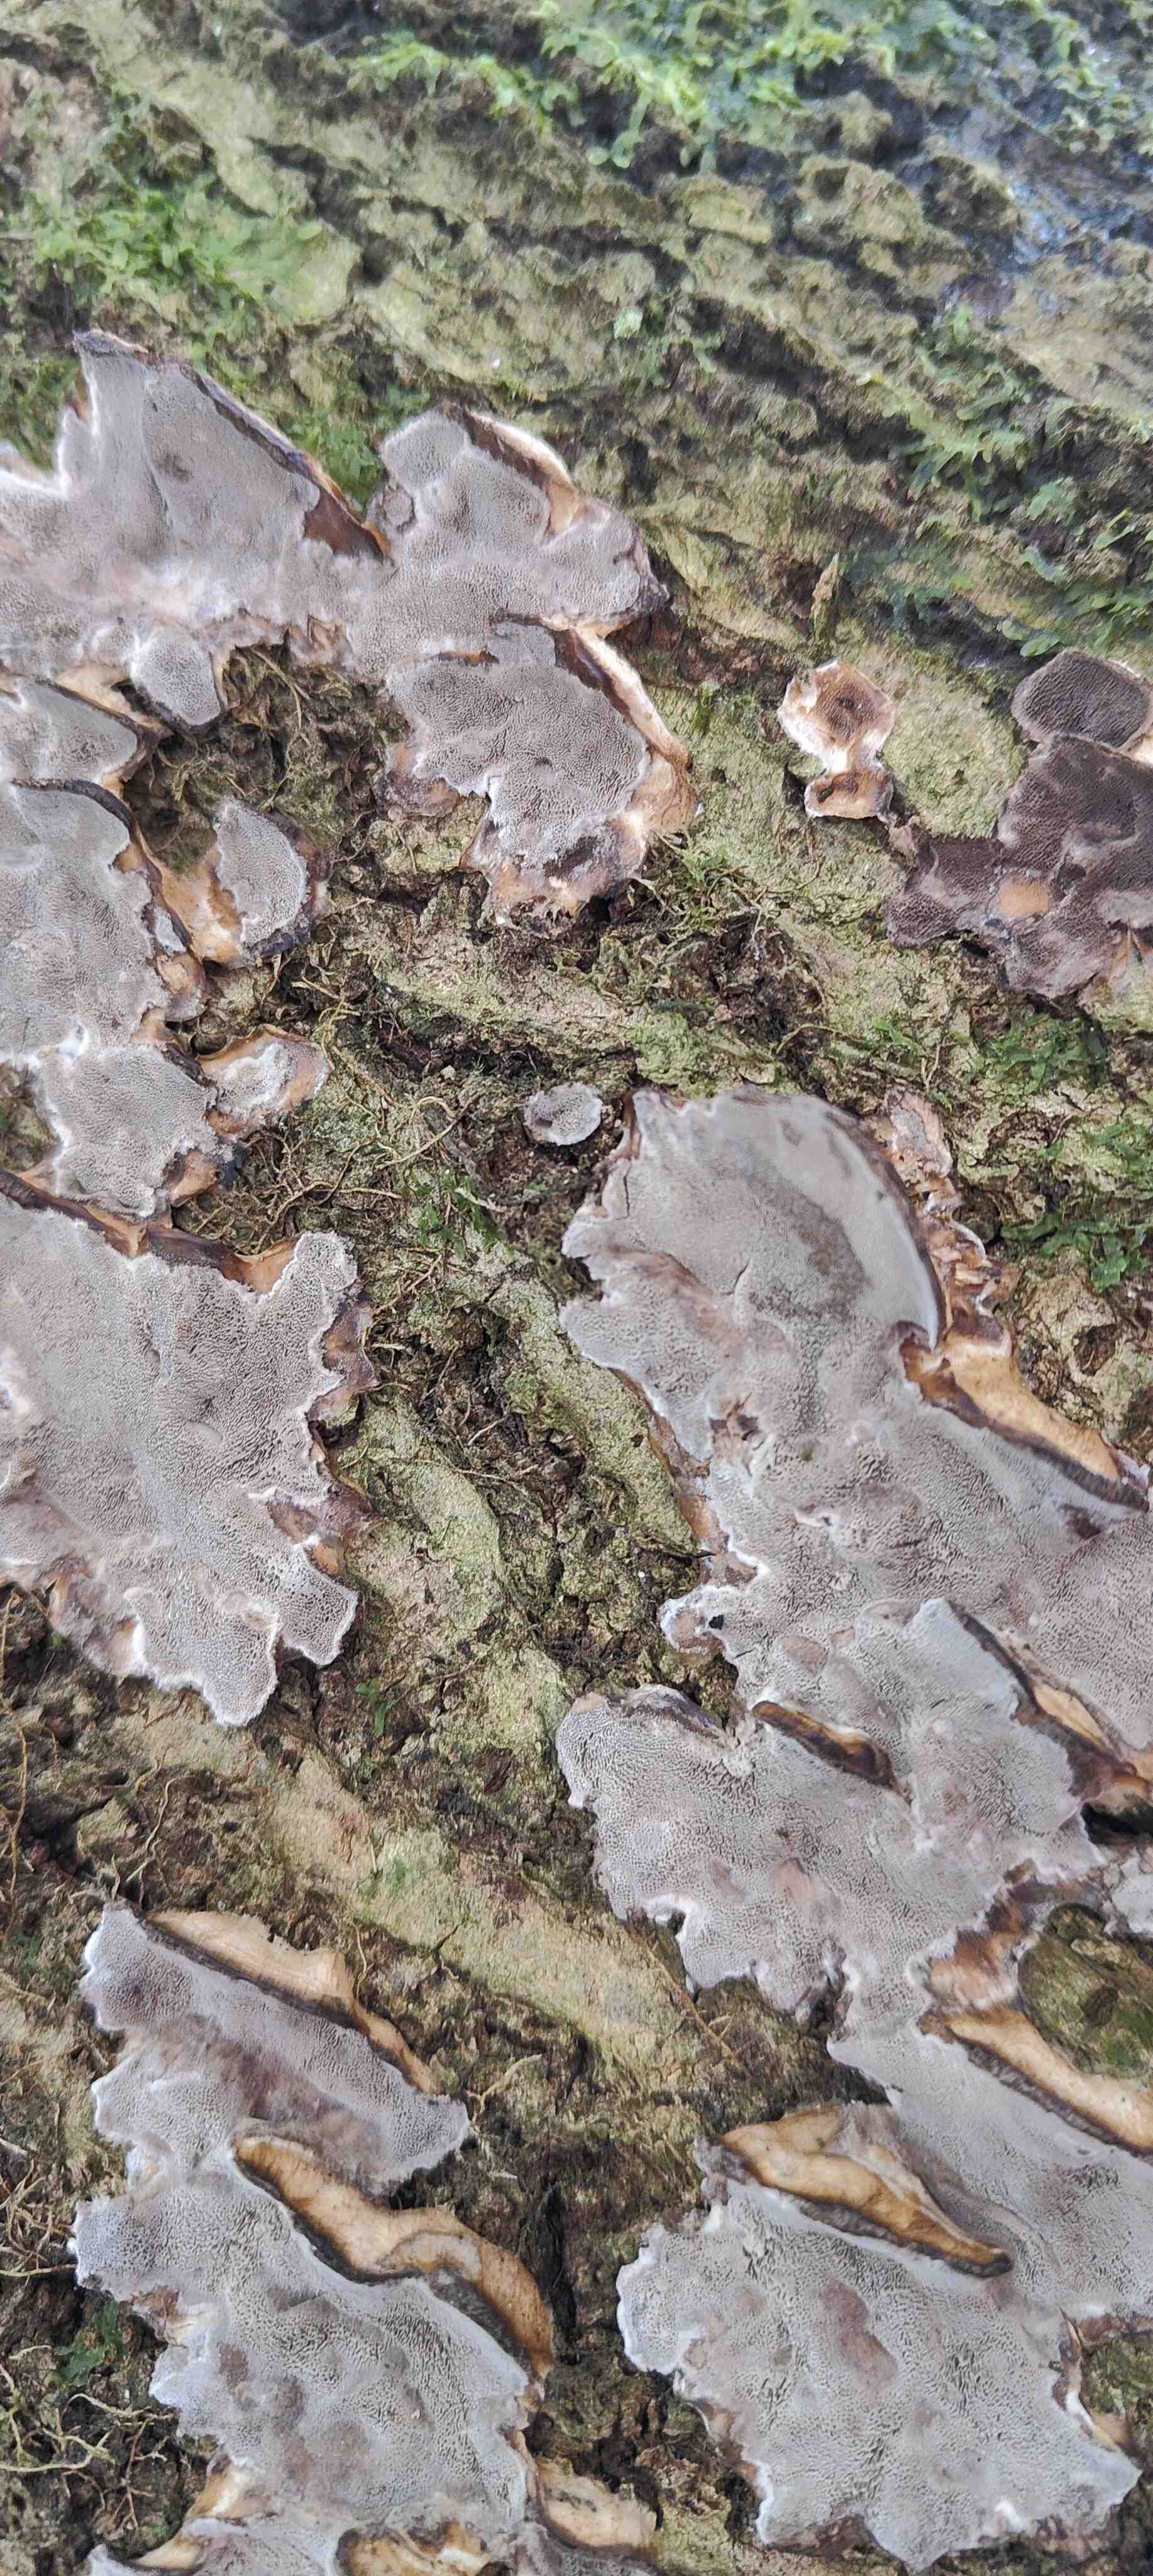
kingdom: Fungi
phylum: Basidiomycota
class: Agaricomycetes
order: Polyporales
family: Phanerochaetaceae
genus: Bjerkandera
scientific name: Bjerkandera adusta
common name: sveden sodporesvamp
